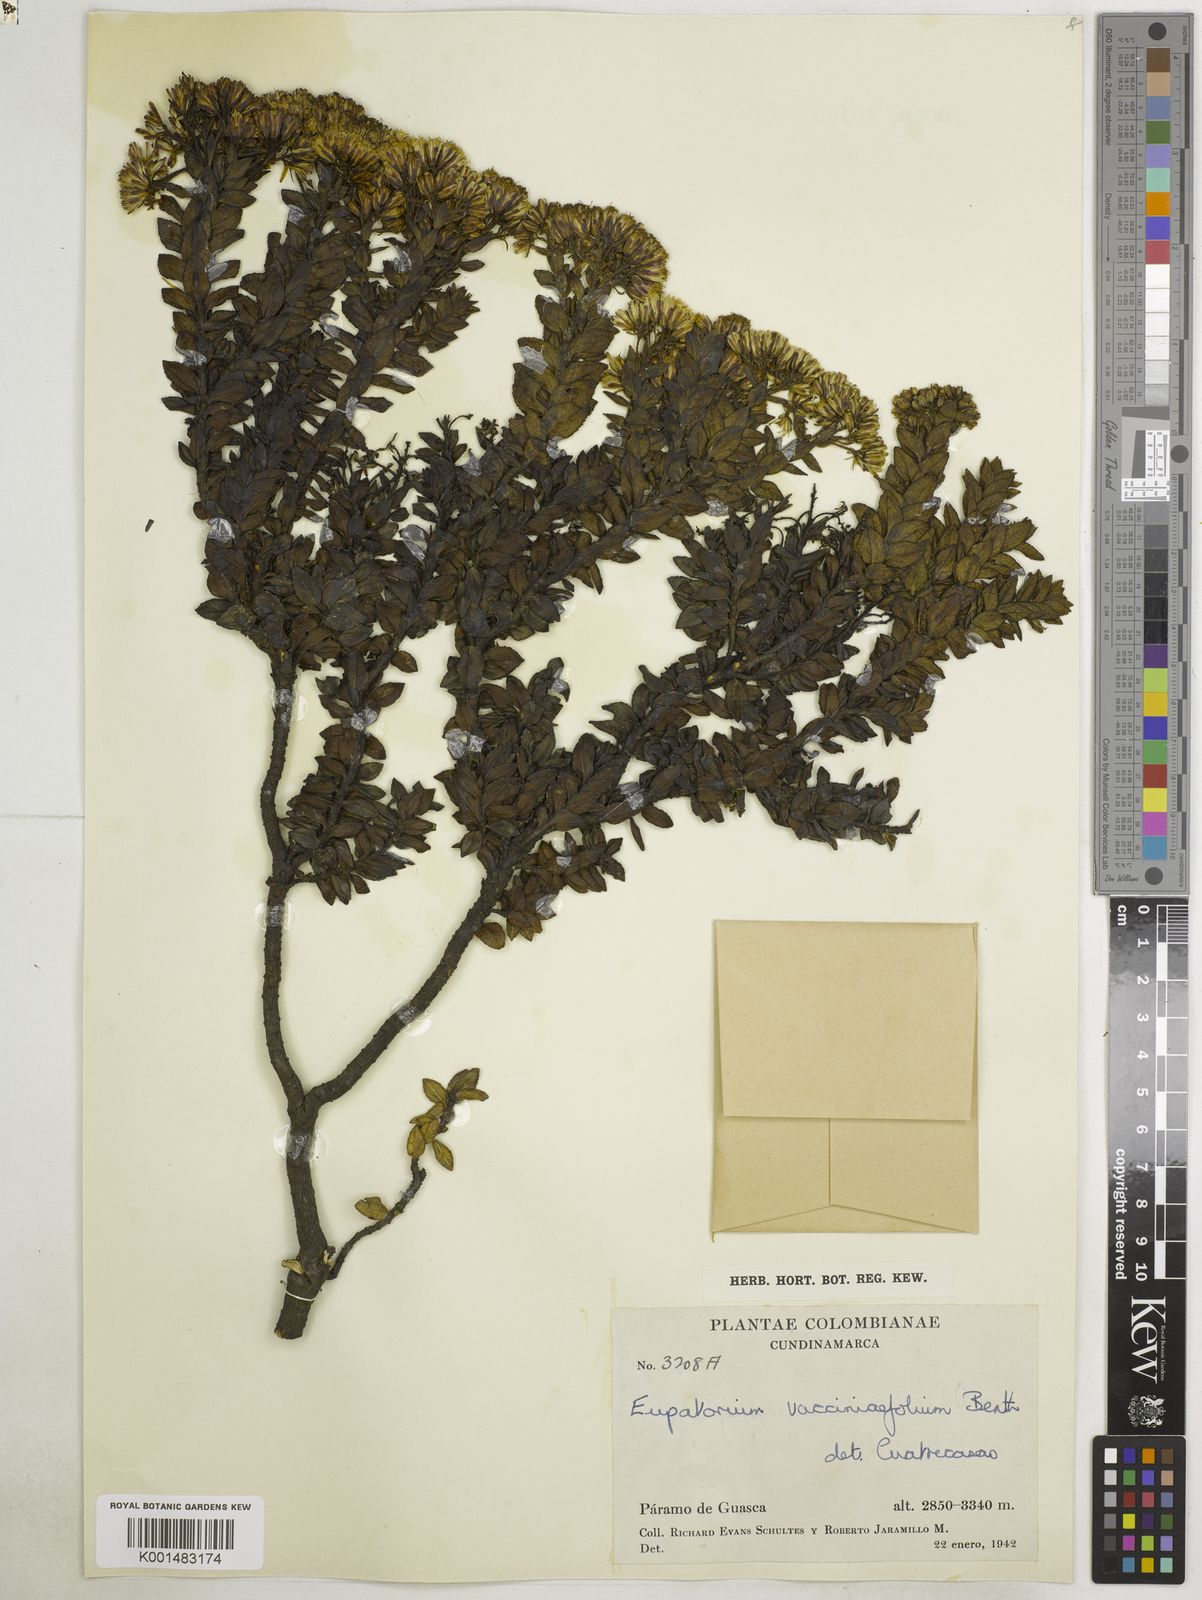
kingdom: Plantae
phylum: Tracheophyta
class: Magnoliopsida
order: Asterales
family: Asteraceae
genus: Ageratina
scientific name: Ageratina vacciniifolia
